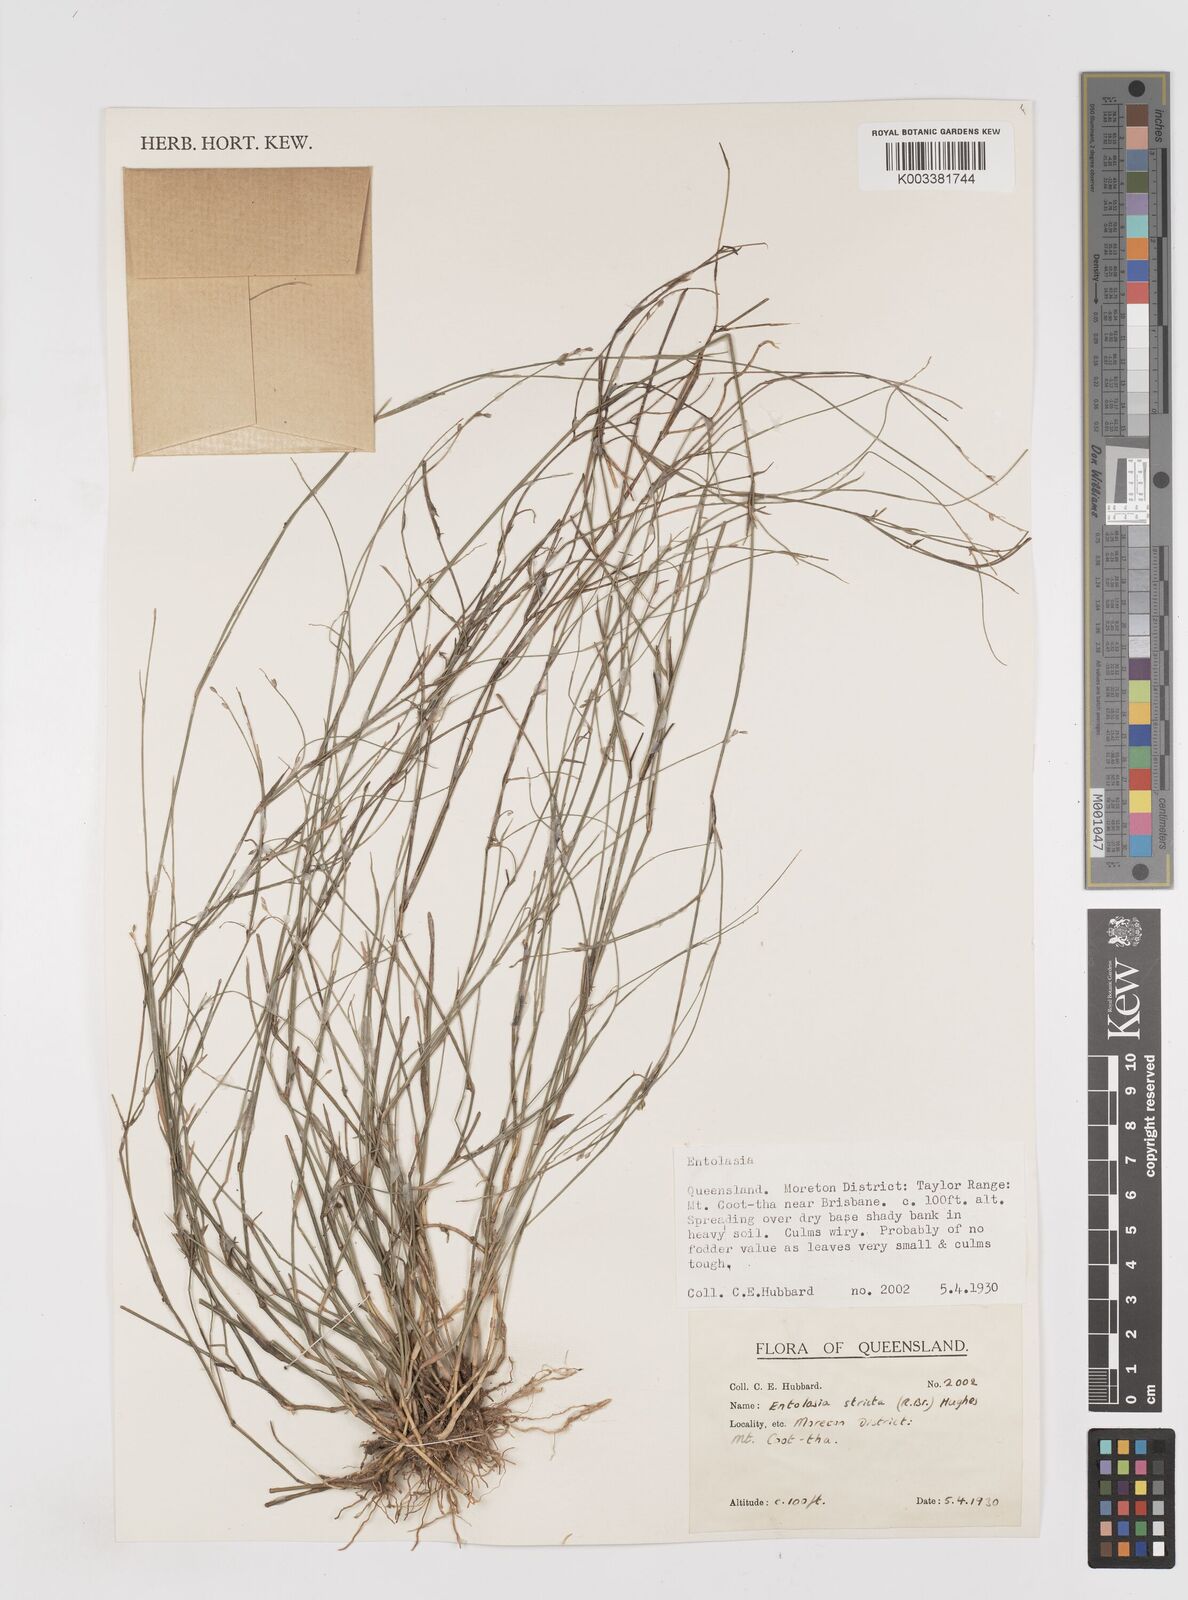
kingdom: Plantae
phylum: Tracheophyta
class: Liliopsida
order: Poales
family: Poaceae
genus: Entolasia
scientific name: Entolasia stricta
